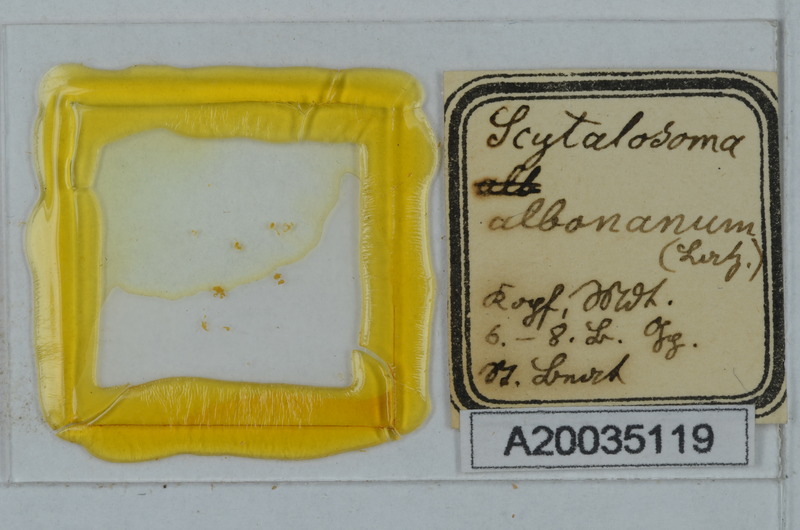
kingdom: Animalia
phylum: Arthropoda
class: Diplopoda
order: Polydesmida
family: Macrosternodesmidae
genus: Ophiodesmus
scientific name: Ophiodesmus albonanus
